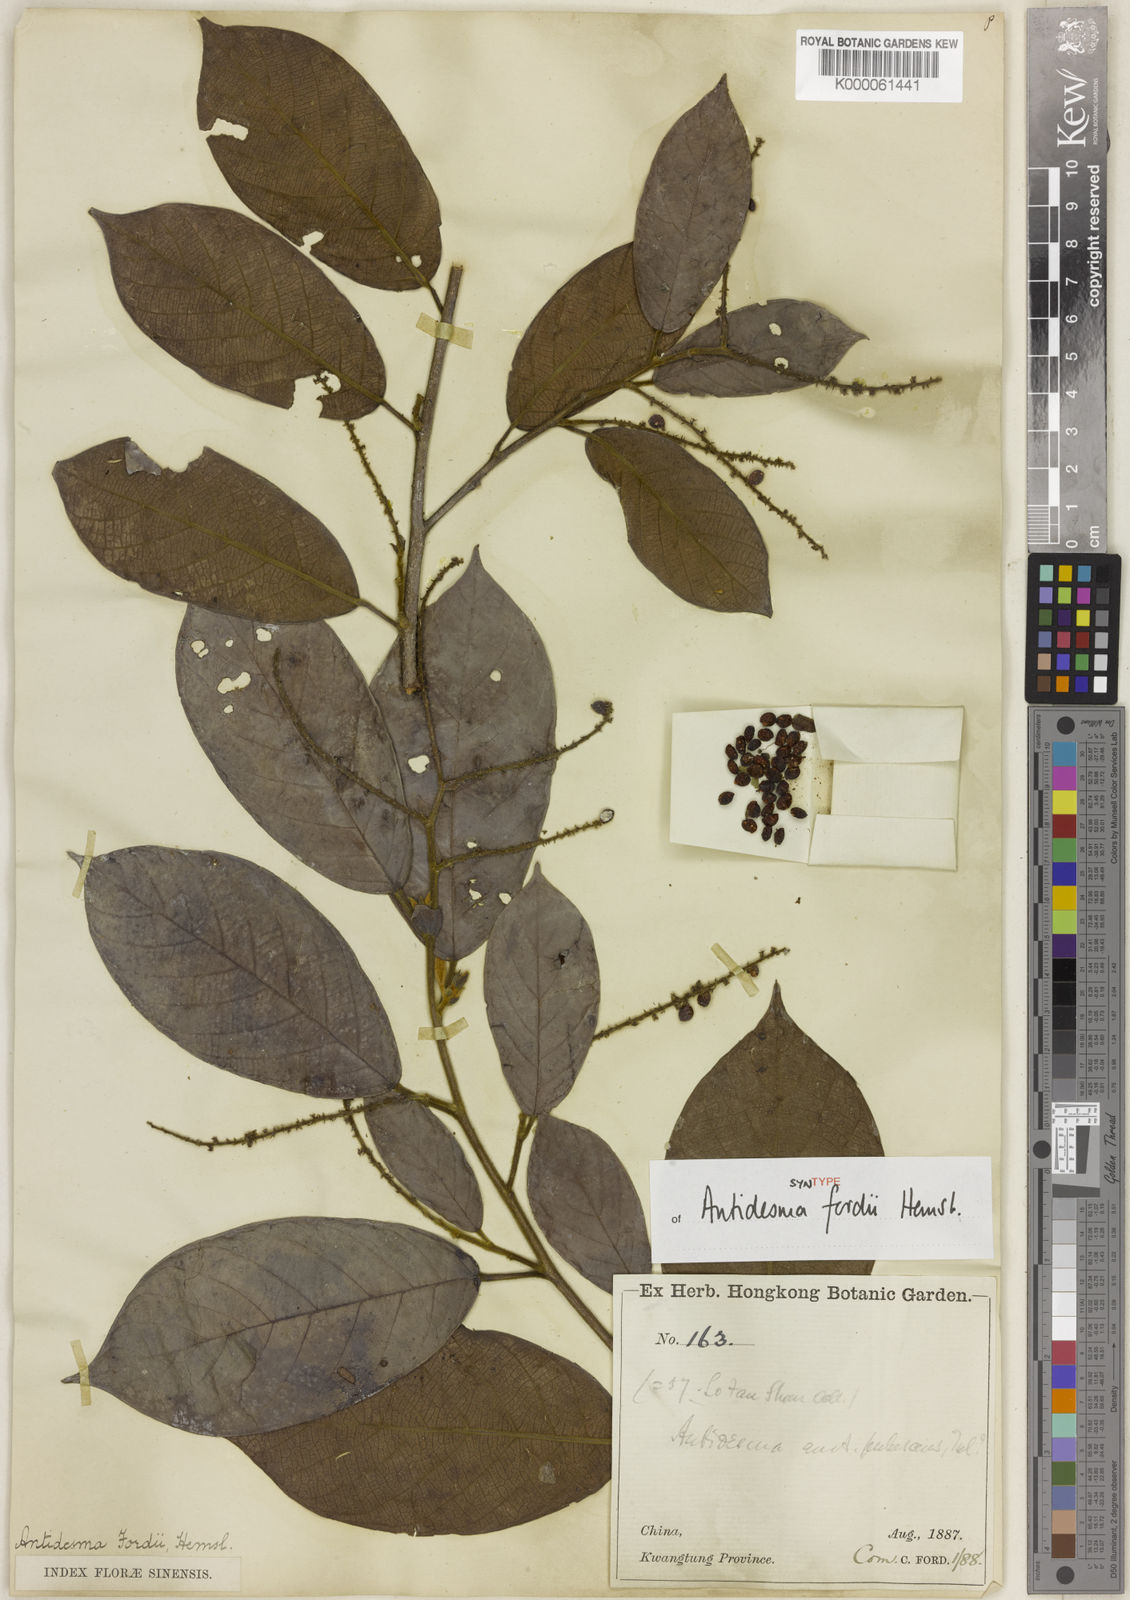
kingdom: Plantae
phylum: Tracheophyta
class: Magnoliopsida
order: Malpighiales
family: Phyllanthaceae
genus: Antidesma
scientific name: Antidesma fordii
